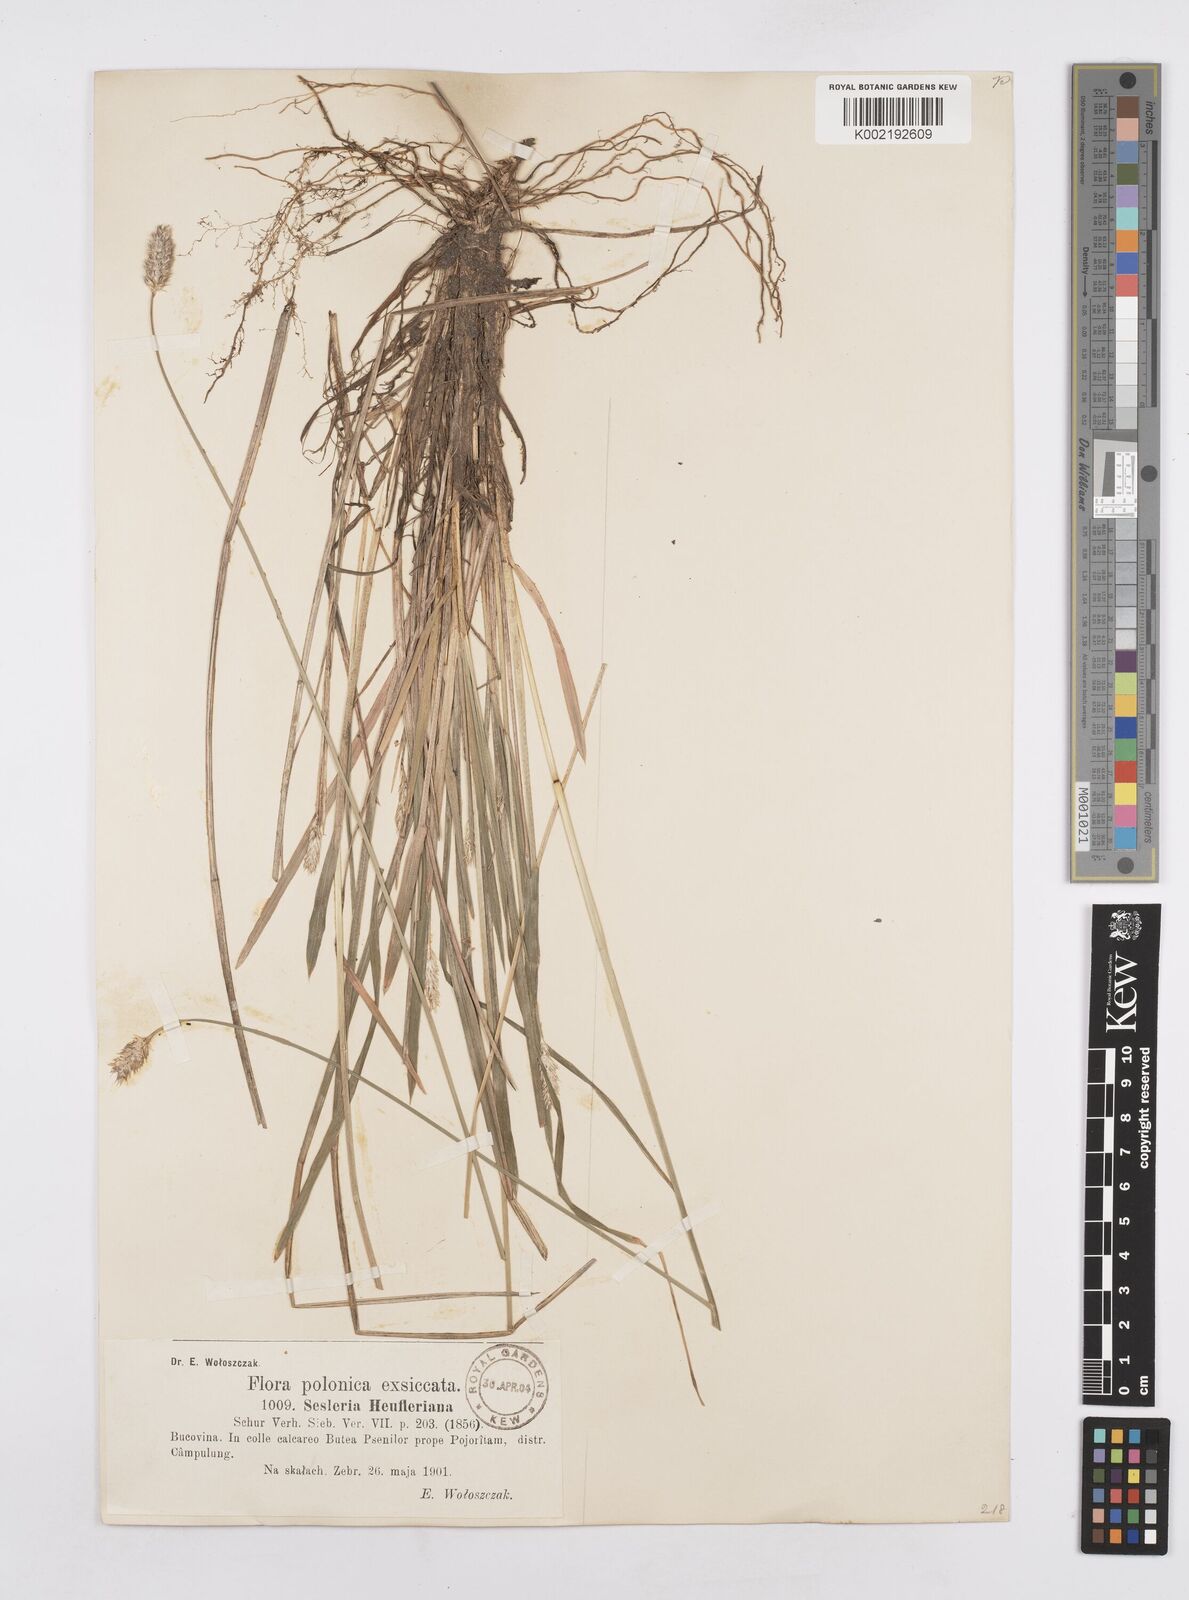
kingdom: Plantae
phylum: Tracheophyta
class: Liliopsida
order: Poales
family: Poaceae
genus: Sesleria
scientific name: Sesleria heufleriana
